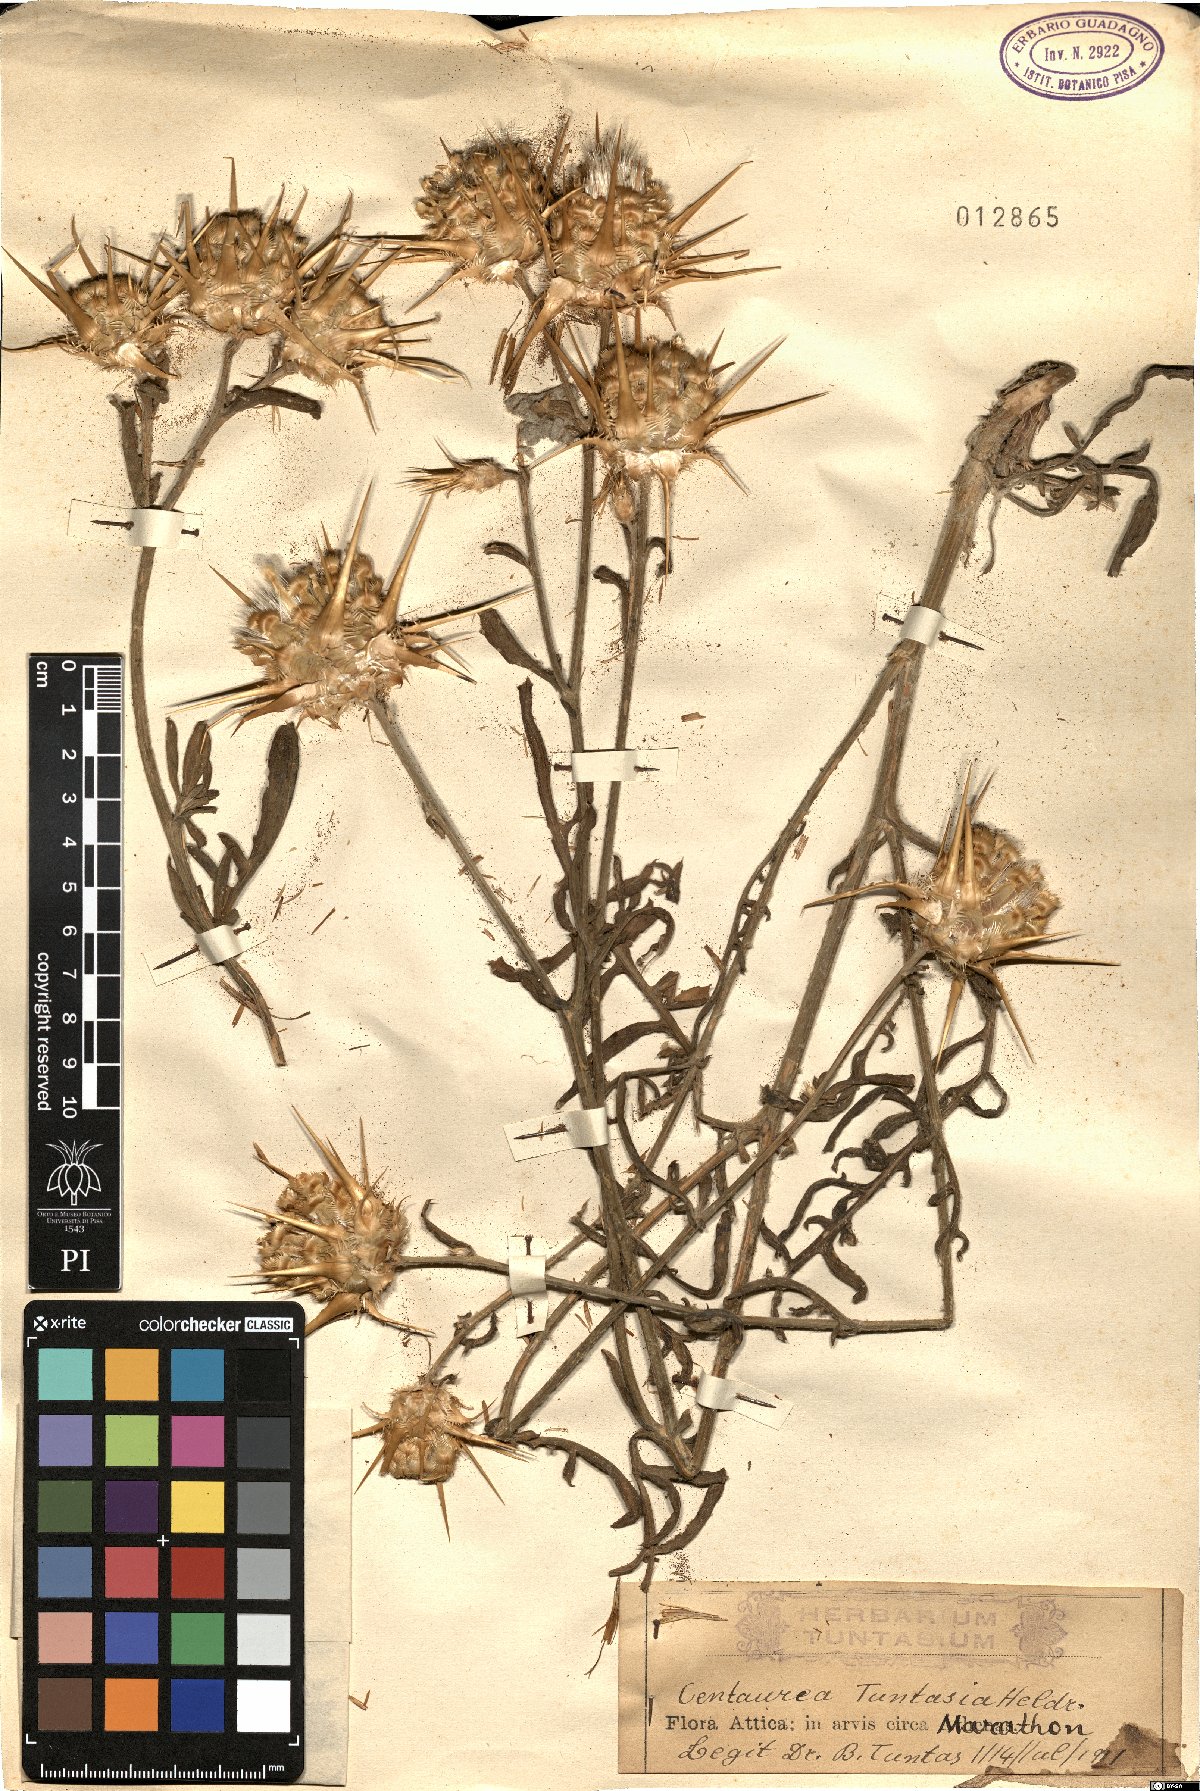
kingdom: Plantae
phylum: Tracheophyta
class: Magnoliopsida
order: Asterales
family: Asteraceae
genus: Centaurea
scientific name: Centaurea tuntasia
